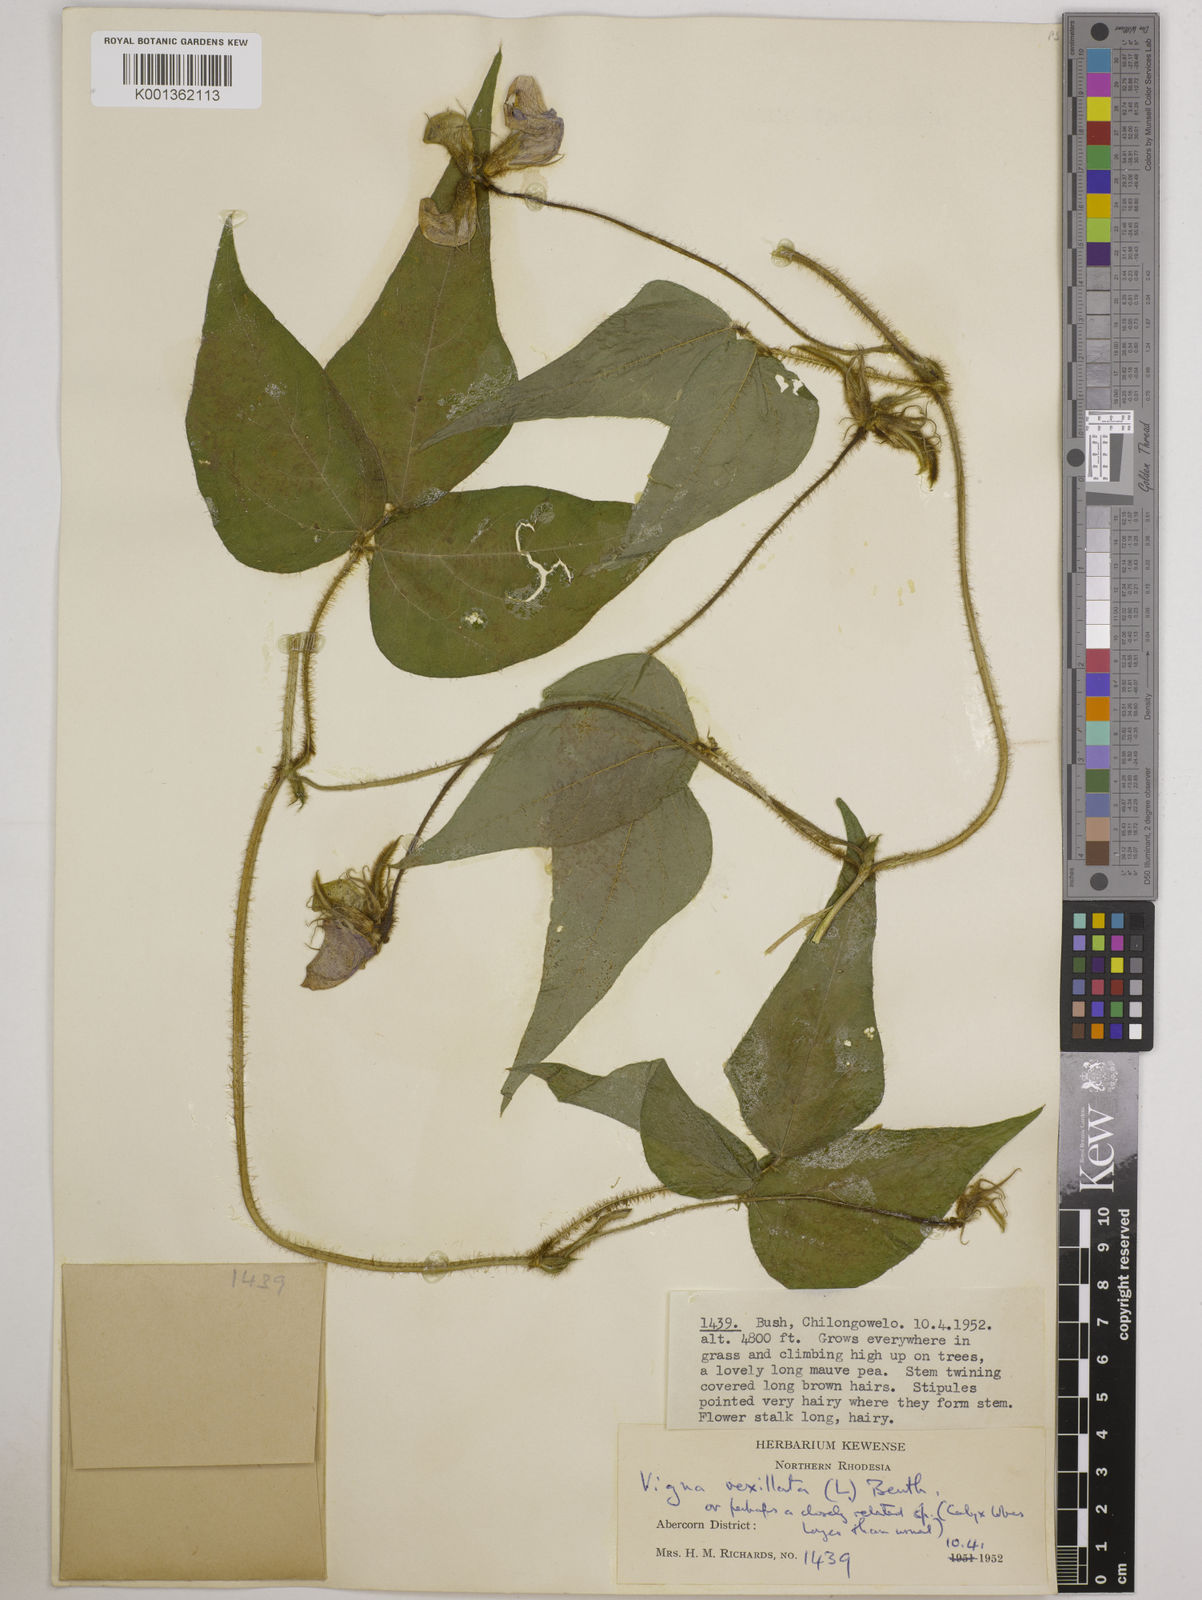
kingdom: Plantae
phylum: Tracheophyta
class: Magnoliopsida
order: Fabales
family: Fabaceae
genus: Vigna
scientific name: Vigna vexillata
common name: Zombi pea
